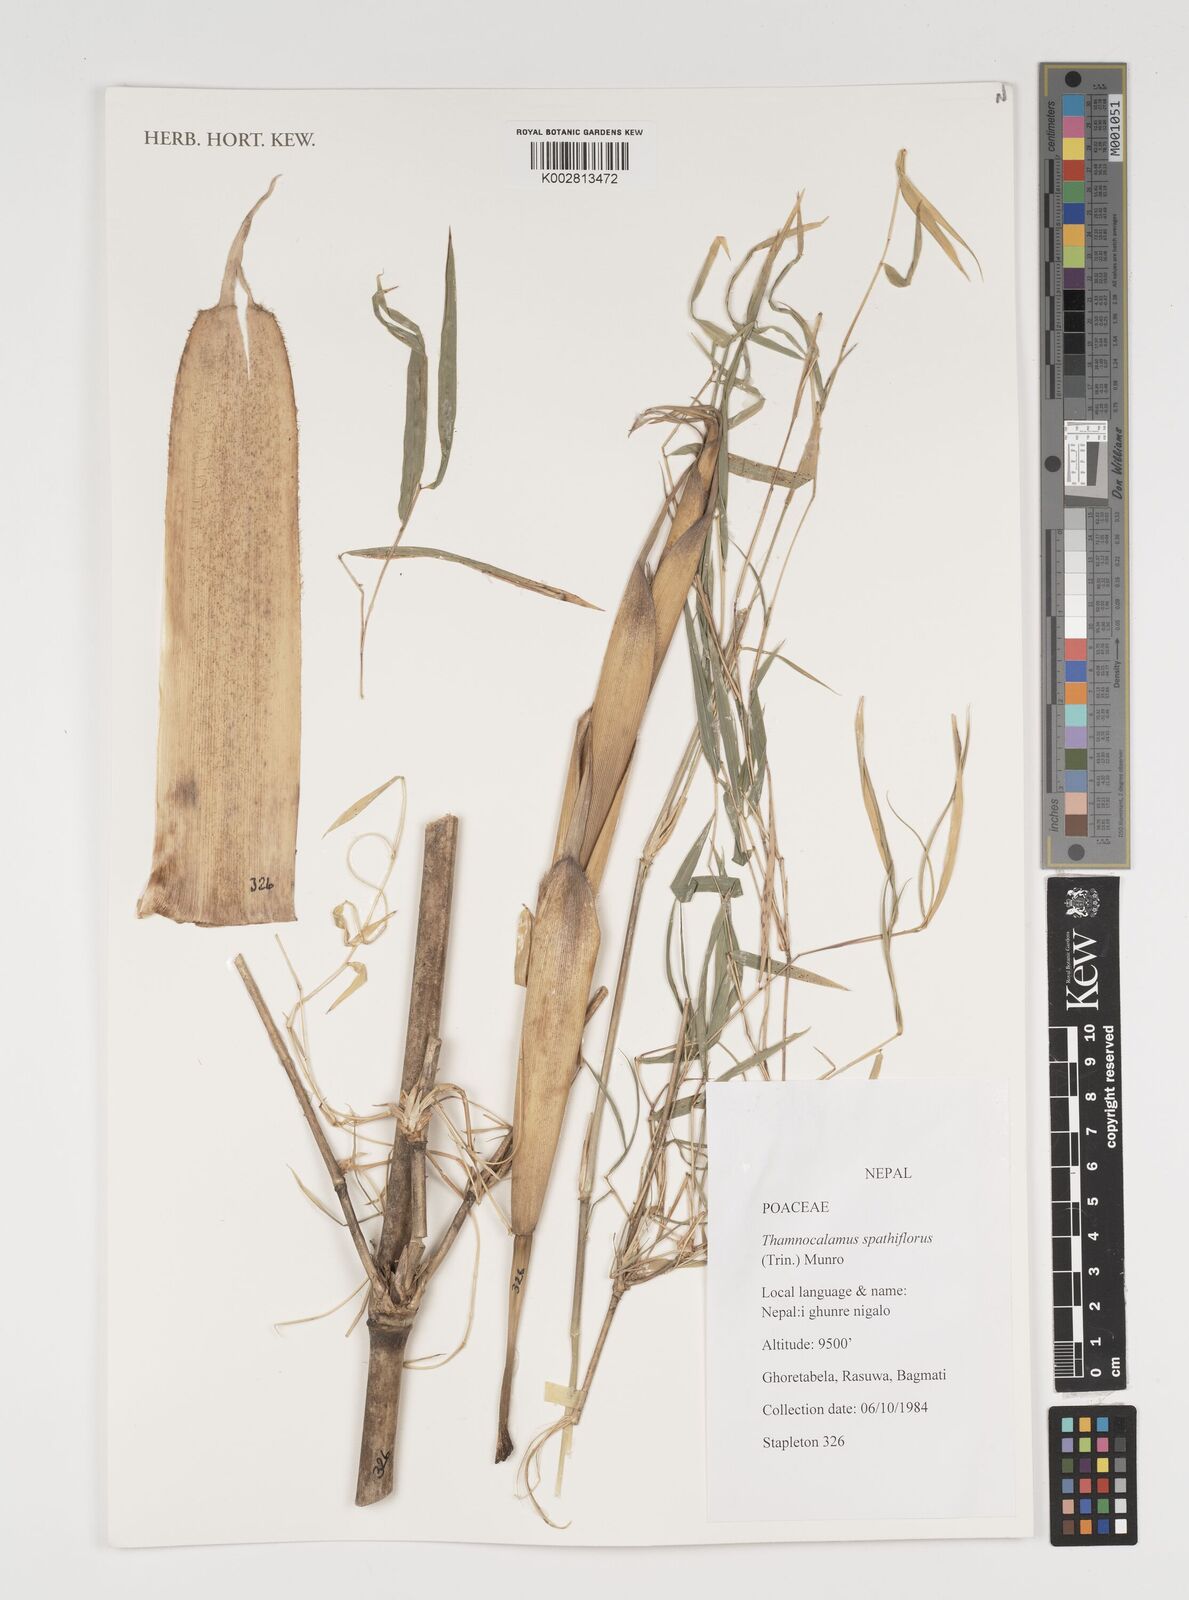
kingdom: Plantae
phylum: Tracheophyta
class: Liliopsida
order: Poales
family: Poaceae
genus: Thamnocalamus
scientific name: Thamnocalamus spathiflorus
